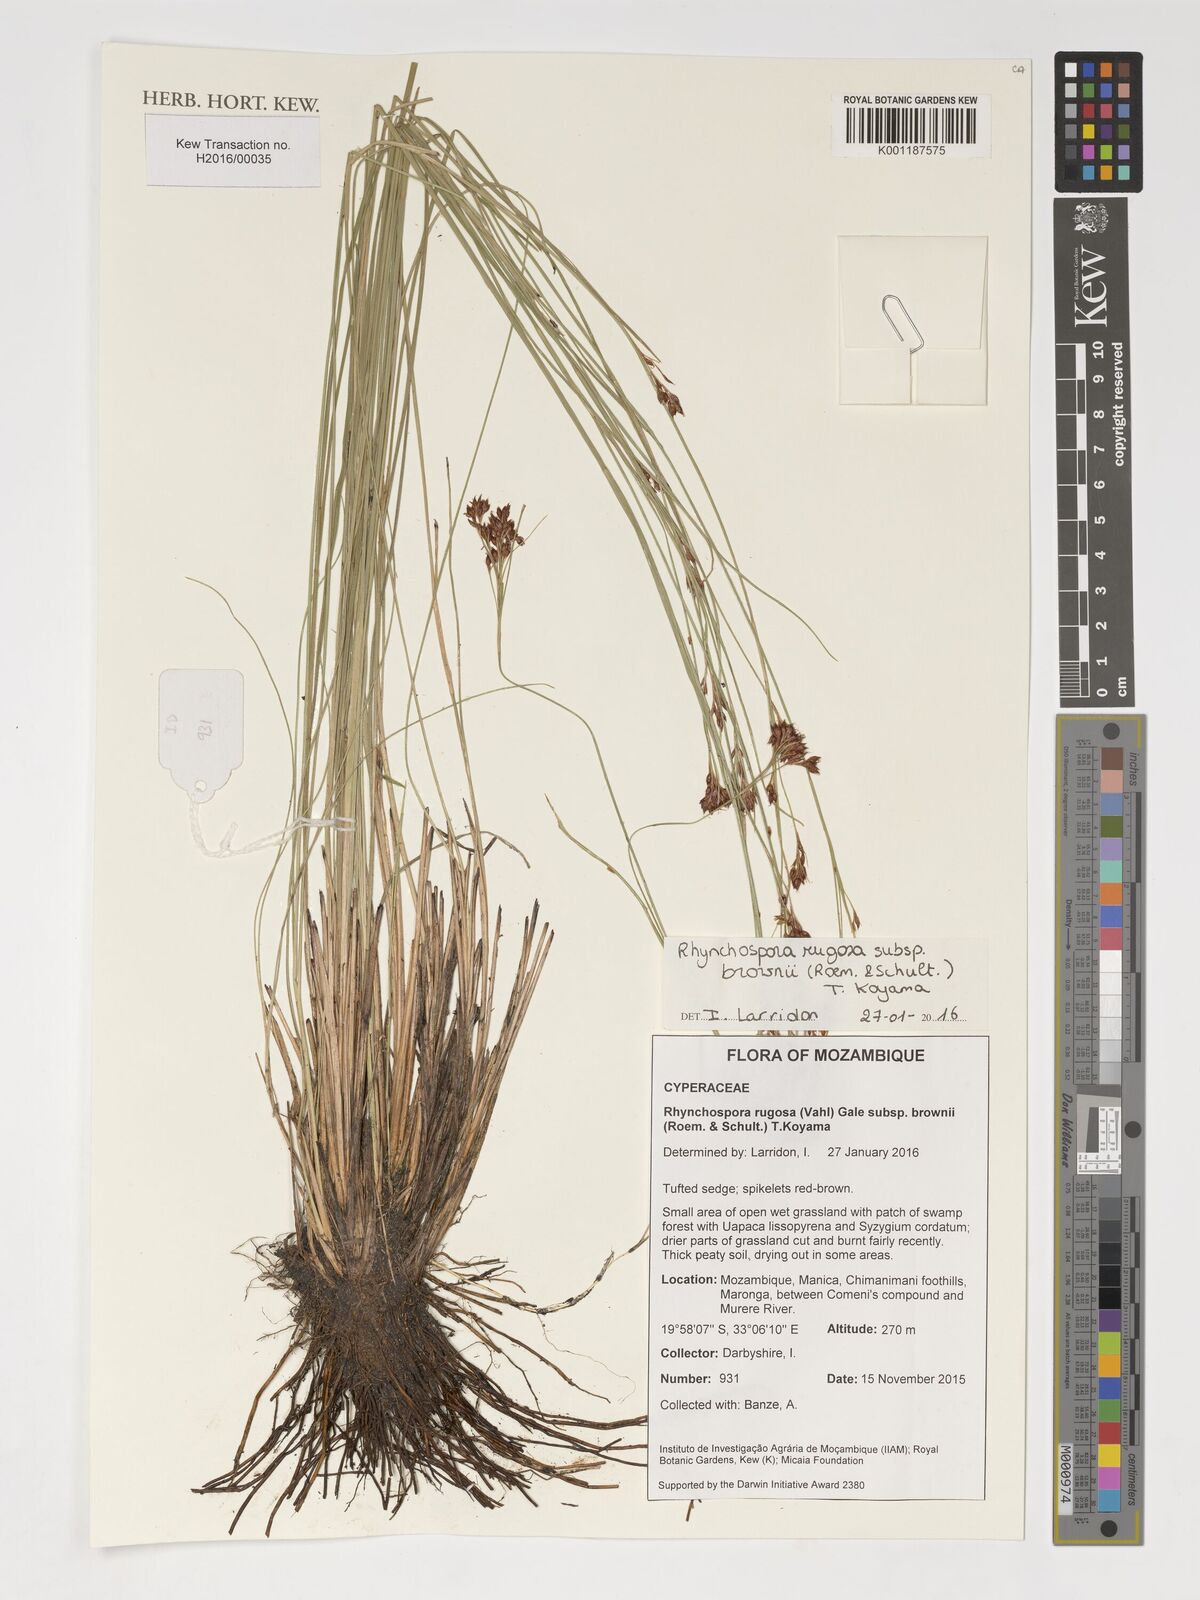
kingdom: Plantae
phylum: Tracheophyta
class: Liliopsida
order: Poales
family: Cyperaceae
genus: Rhynchospora
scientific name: Rhynchospora brownii
